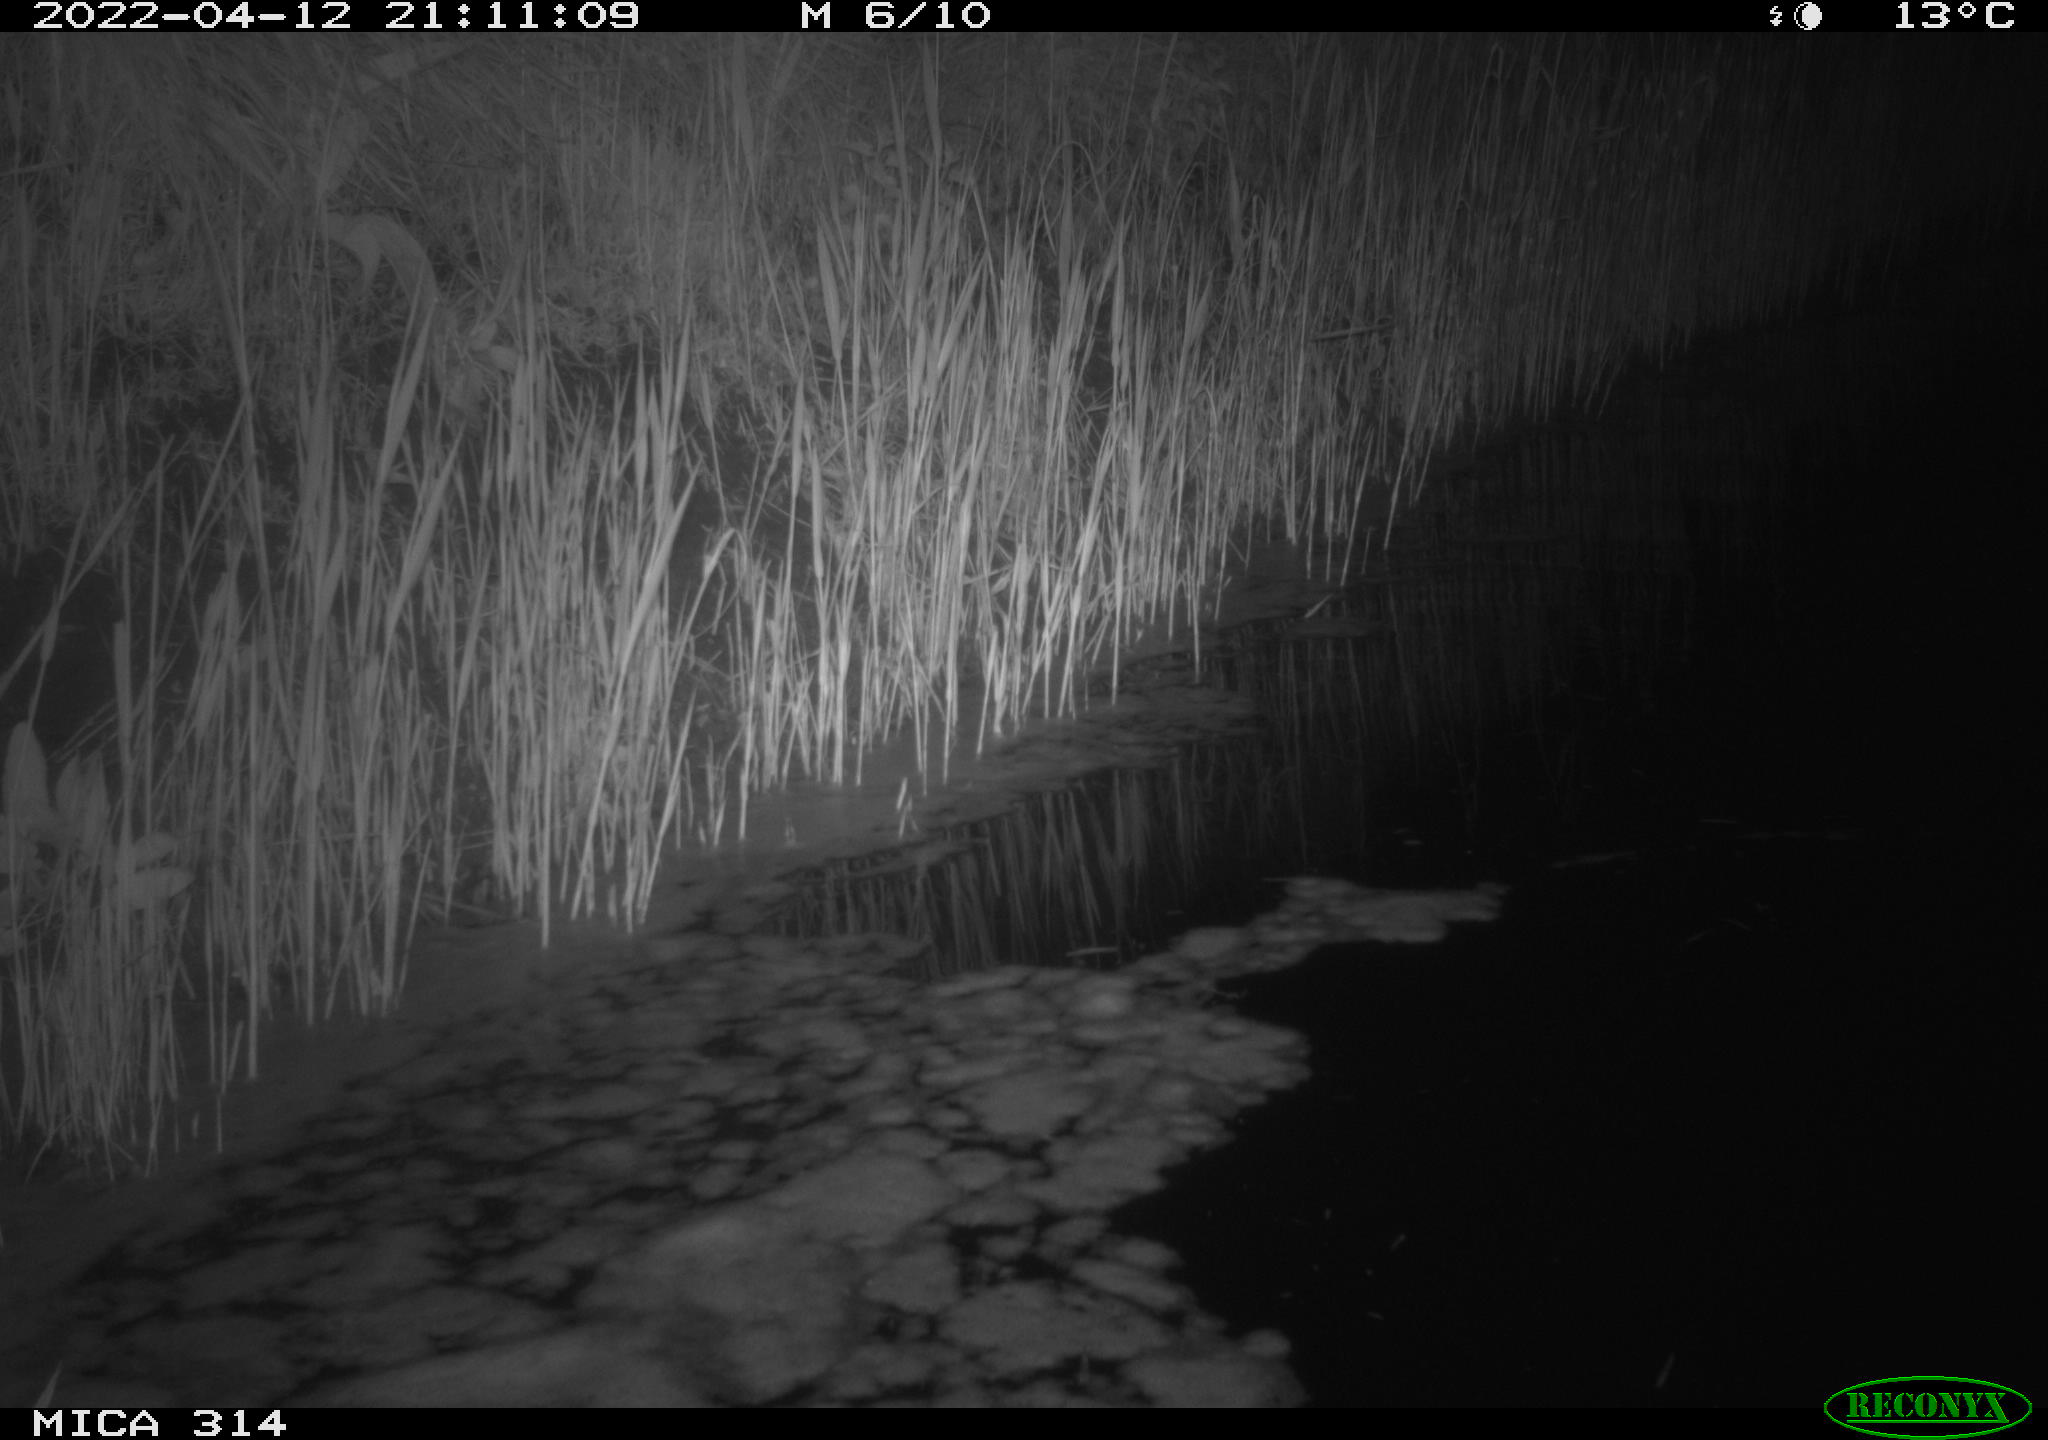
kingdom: Animalia
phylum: Chordata
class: Aves
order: Anseriformes
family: Anatidae
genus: Anas
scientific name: Anas platyrhynchos
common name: Mallard
